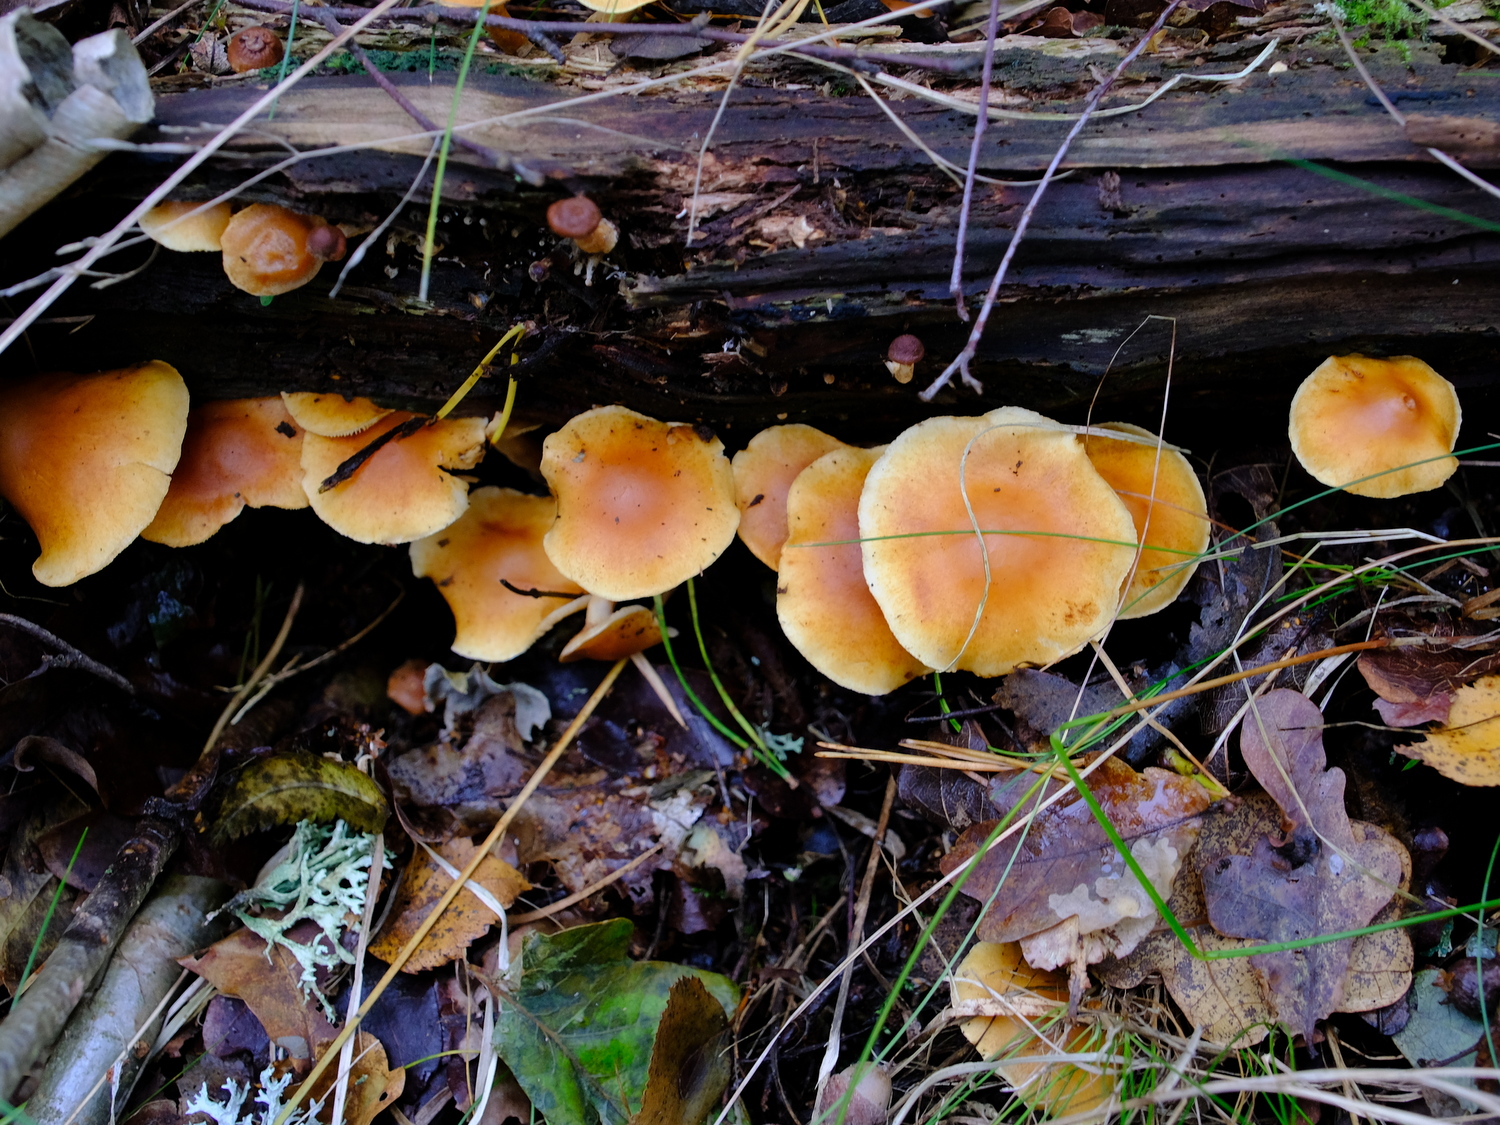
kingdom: Fungi
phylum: Basidiomycota
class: Agaricomycetes
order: Agaricales
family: Hymenogastraceae
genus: Gymnopilus
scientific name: Gymnopilus penetrans
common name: plettet flammehat
